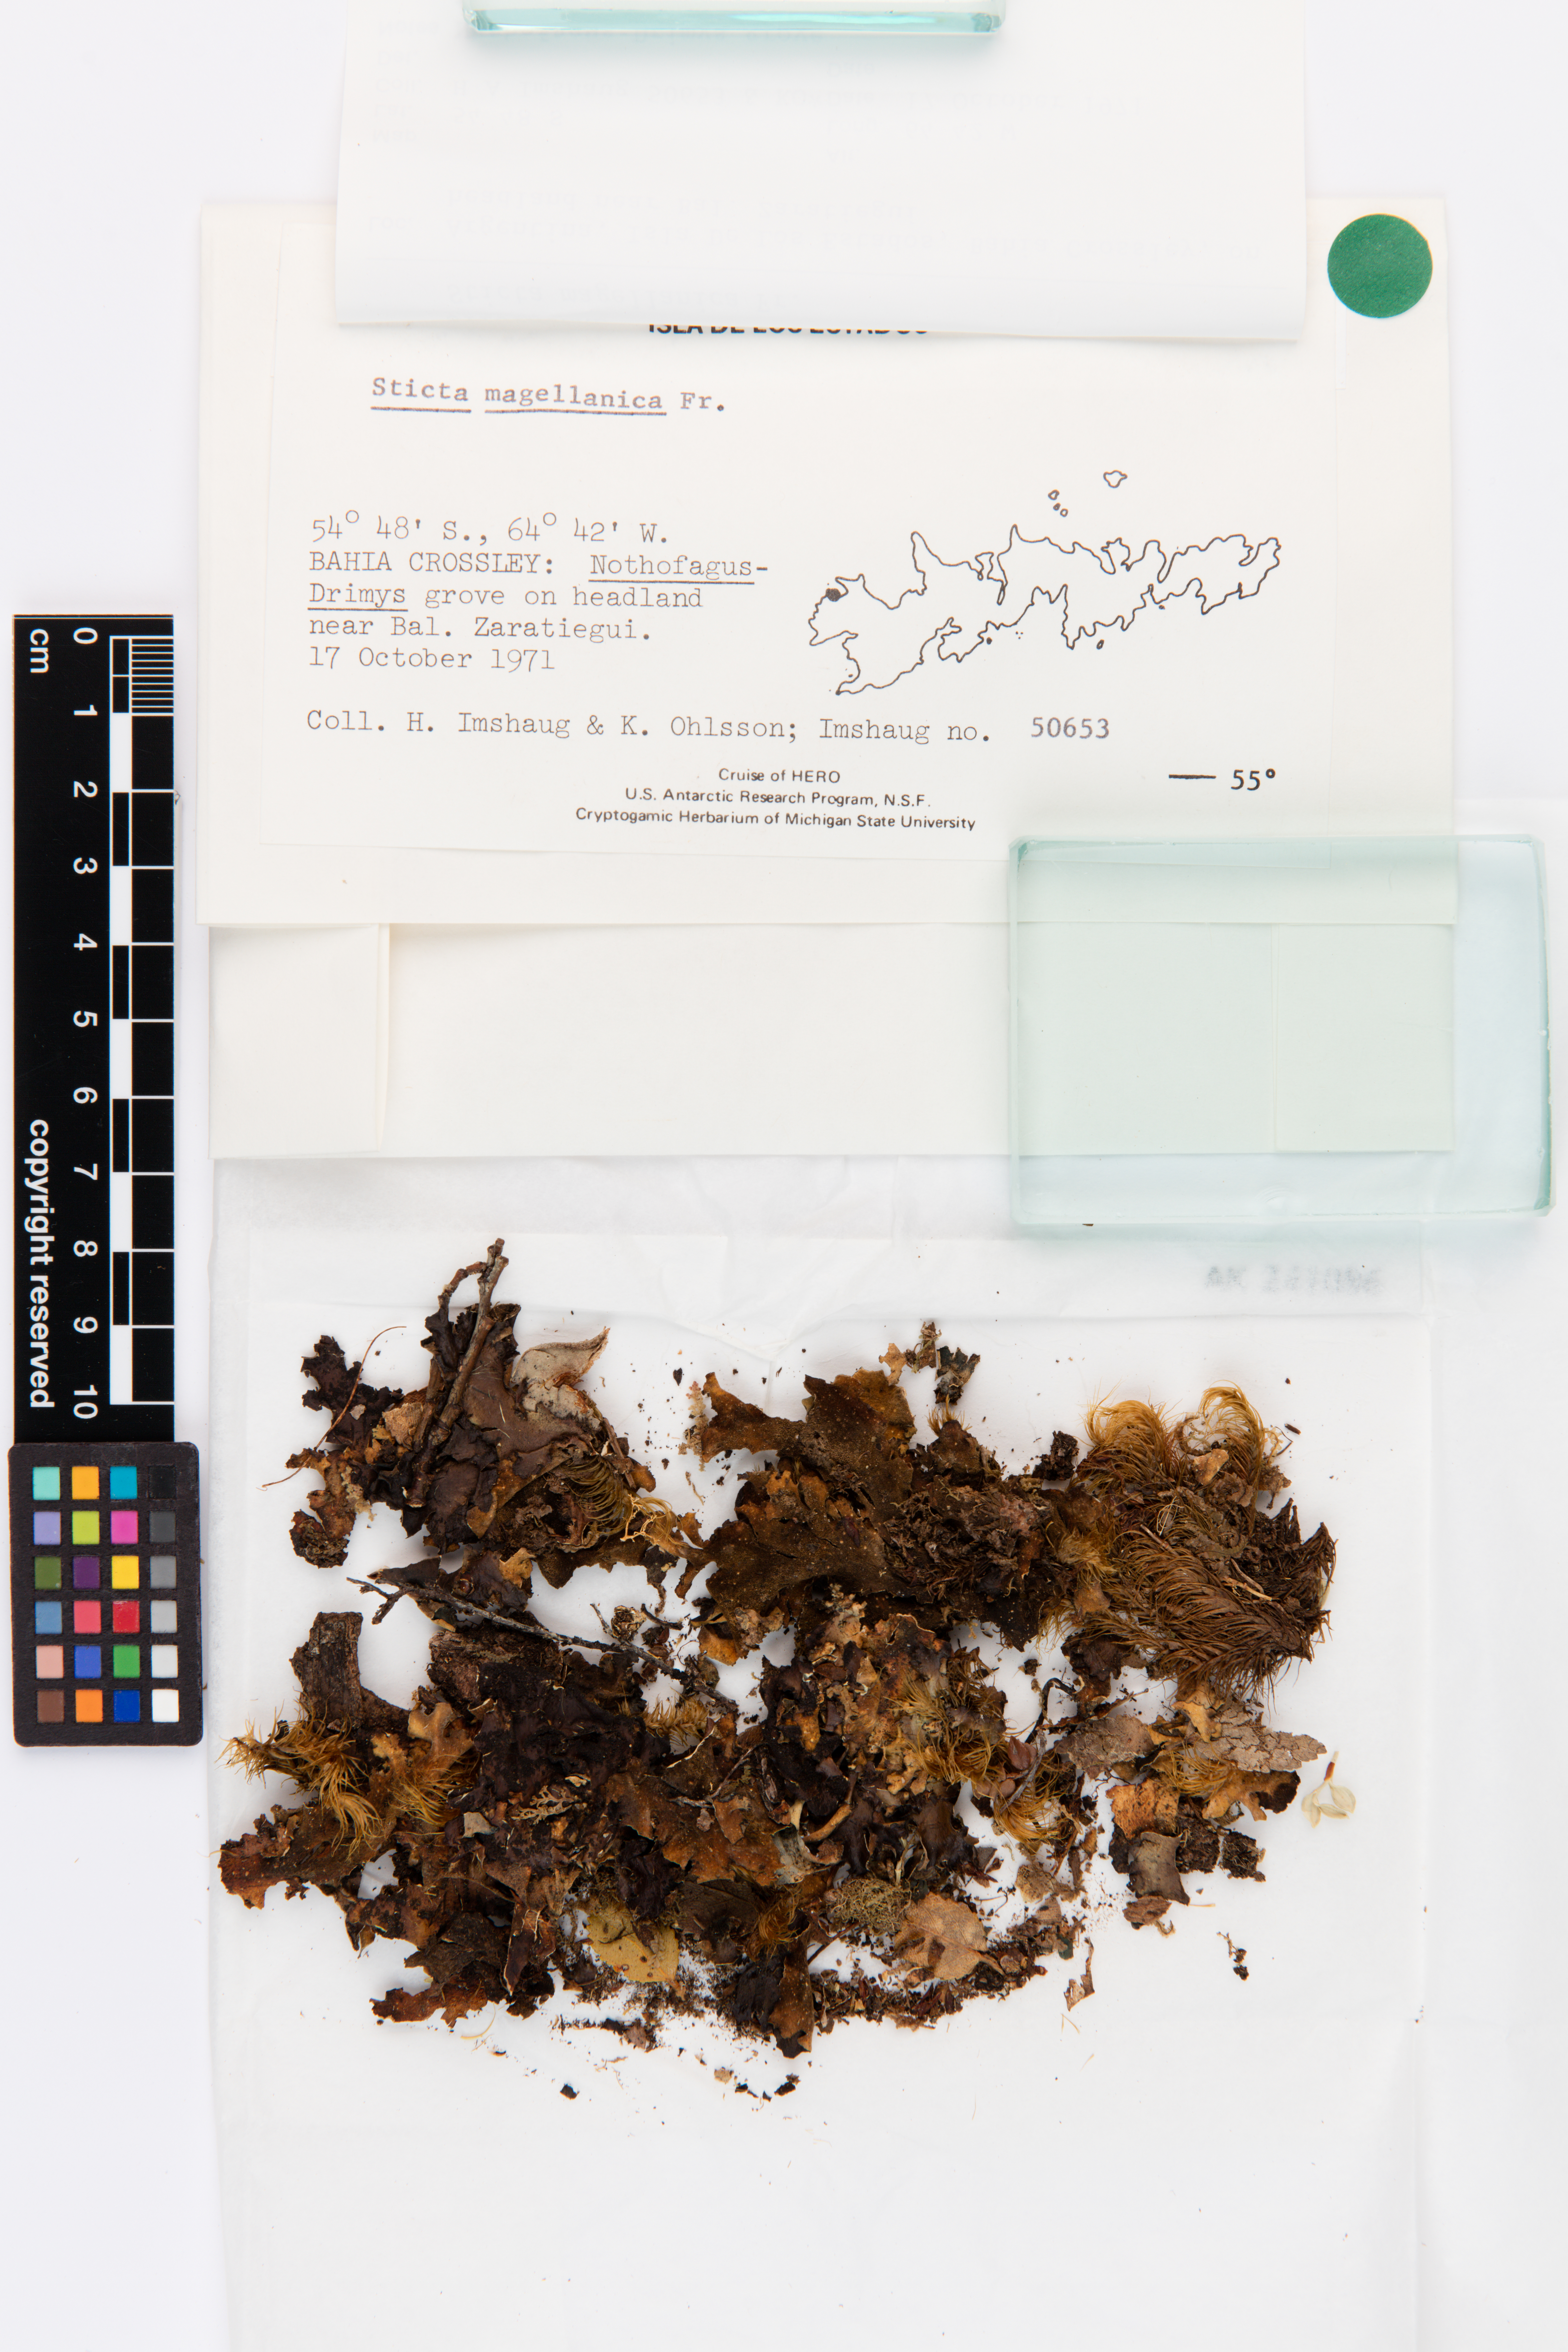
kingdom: Fungi
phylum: Ascomycota
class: Lecanoromycetes
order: Peltigerales
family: Lobariaceae
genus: Sticta
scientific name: Sticta
